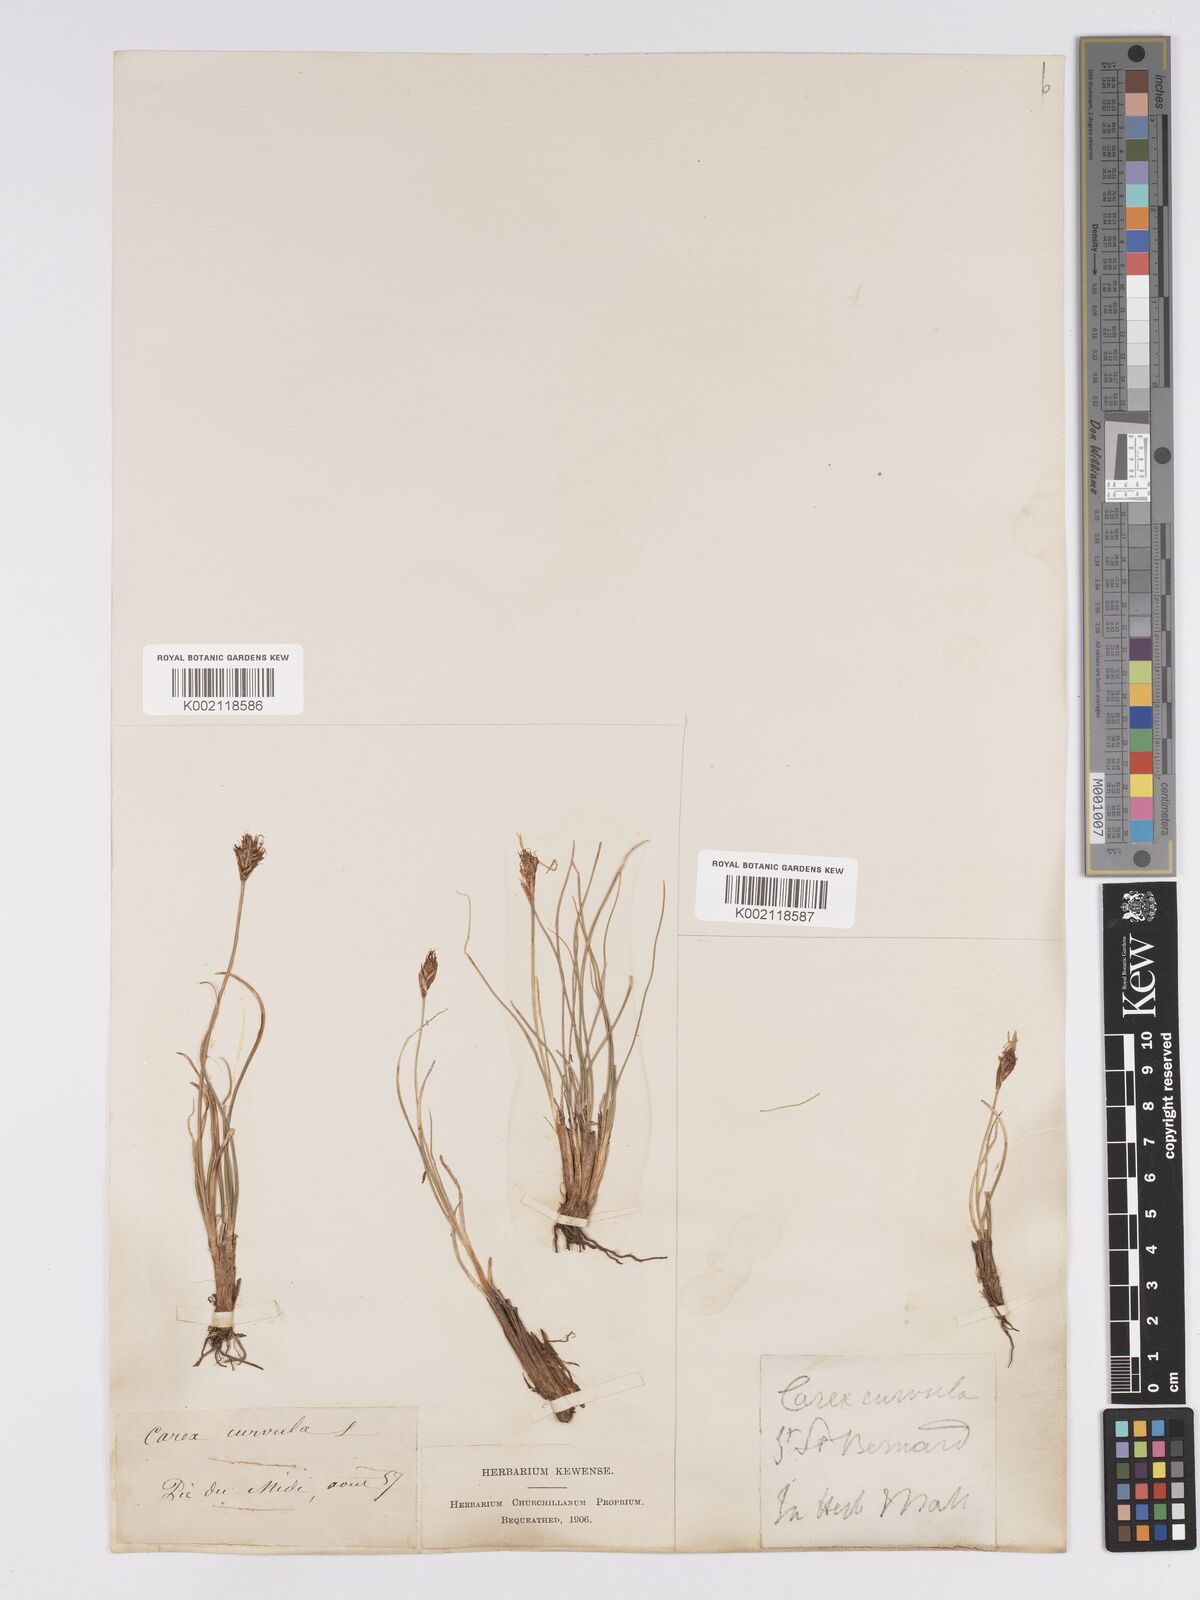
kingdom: Plantae
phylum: Tracheophyta
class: Liliopsida
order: Poales
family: Cyperaceae
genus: Carex
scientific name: Carex curvula
